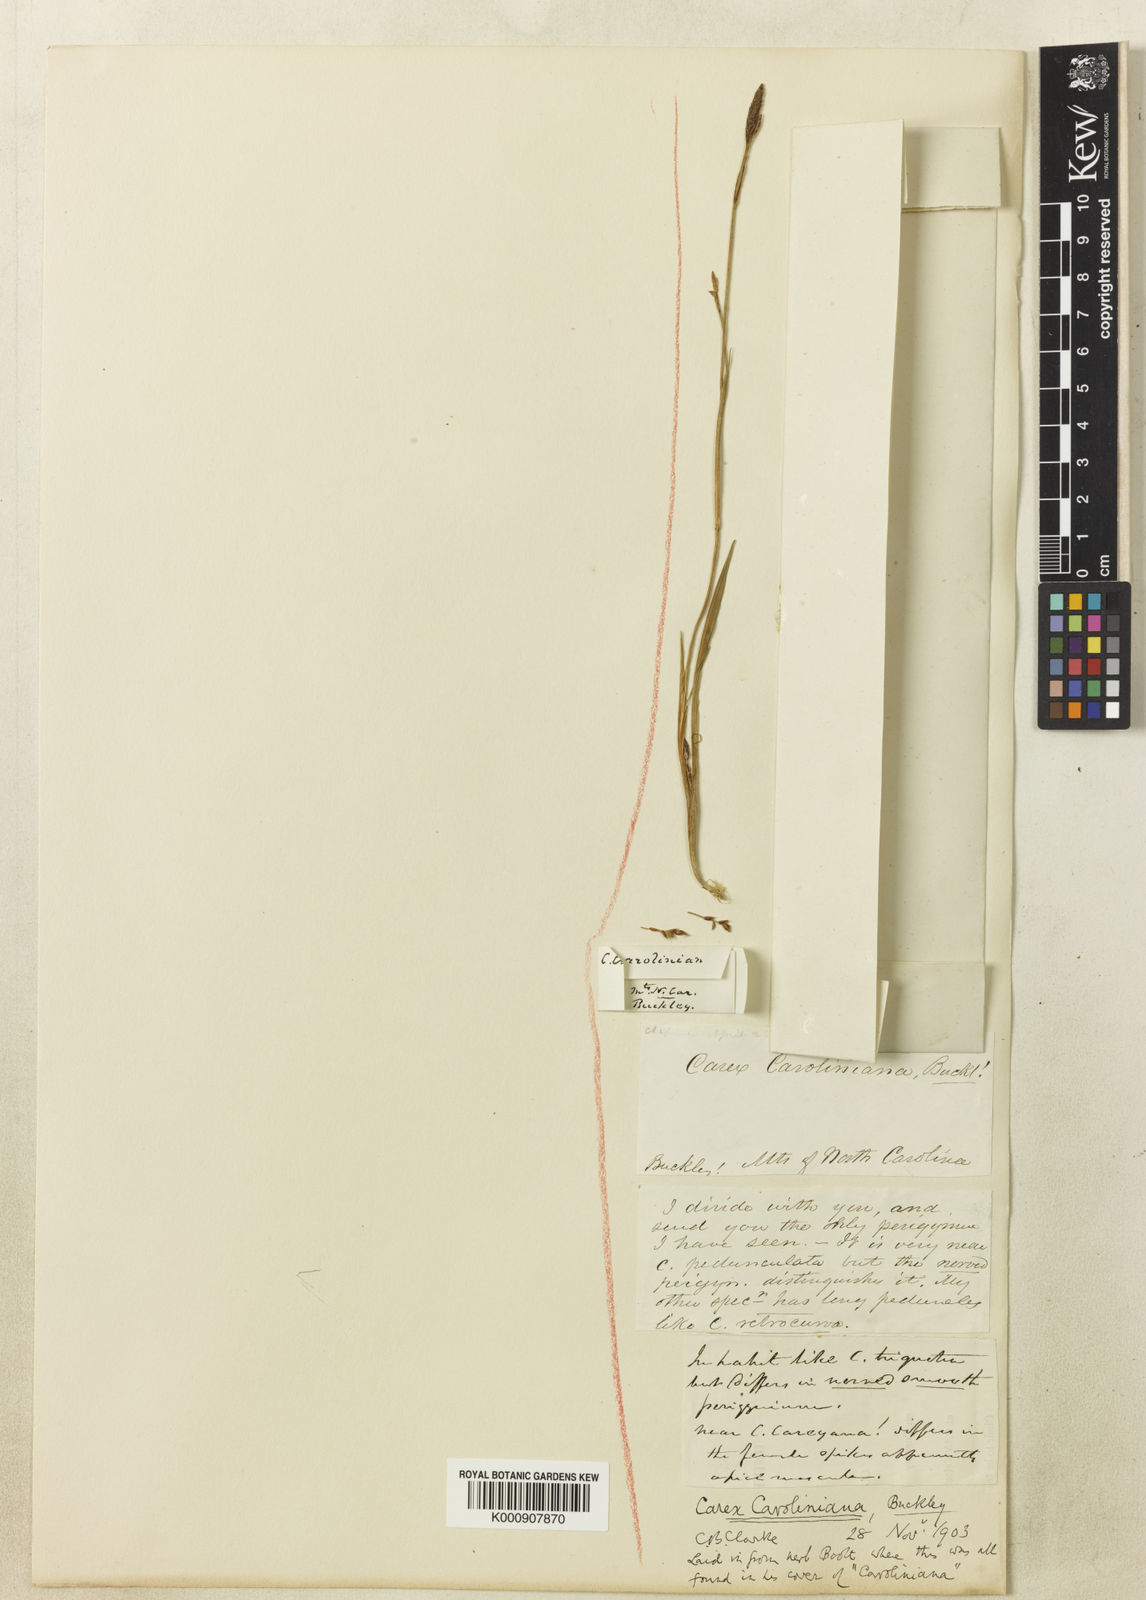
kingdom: Plantae
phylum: Tracheophyta
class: Liliopsida
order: Poales
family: Cyperaceae
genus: Carex
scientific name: Carex austrocaroliniana
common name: Tarheel sedge
